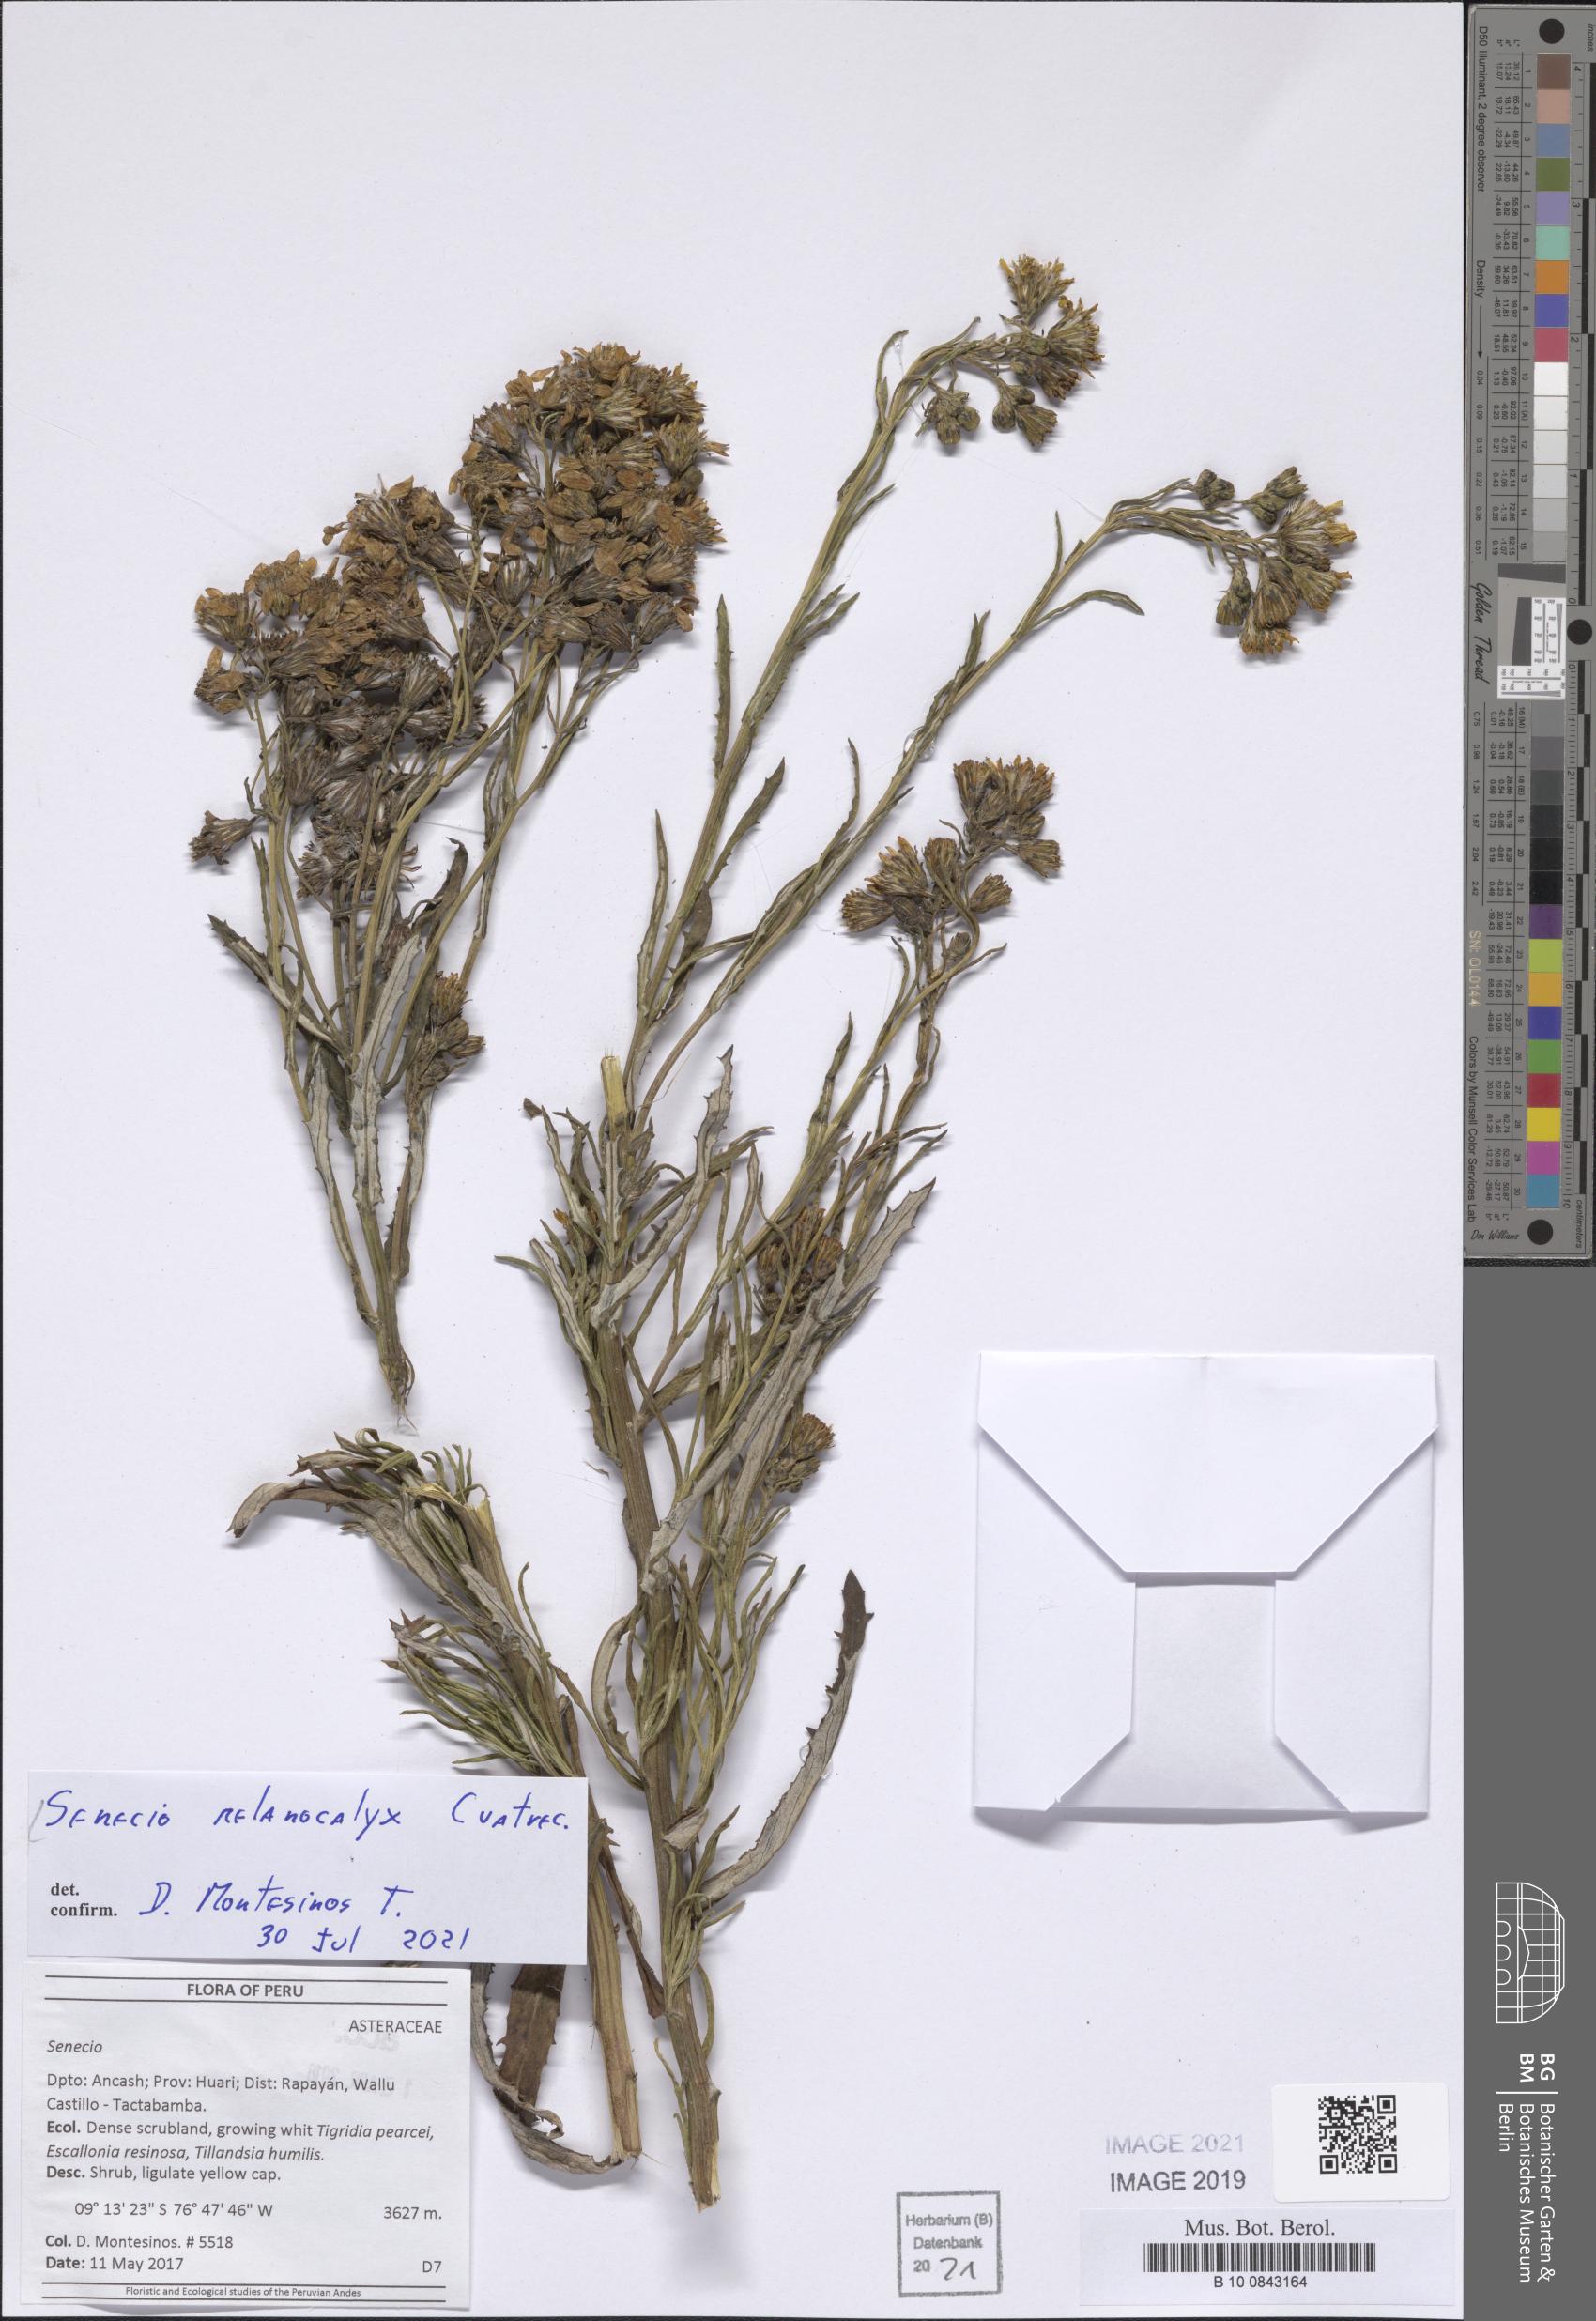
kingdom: Plantae
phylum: Tracheophyta
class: Magnoliopsida
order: Asterales
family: Asteraceae
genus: Senecio
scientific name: Senecio melanocalyx
